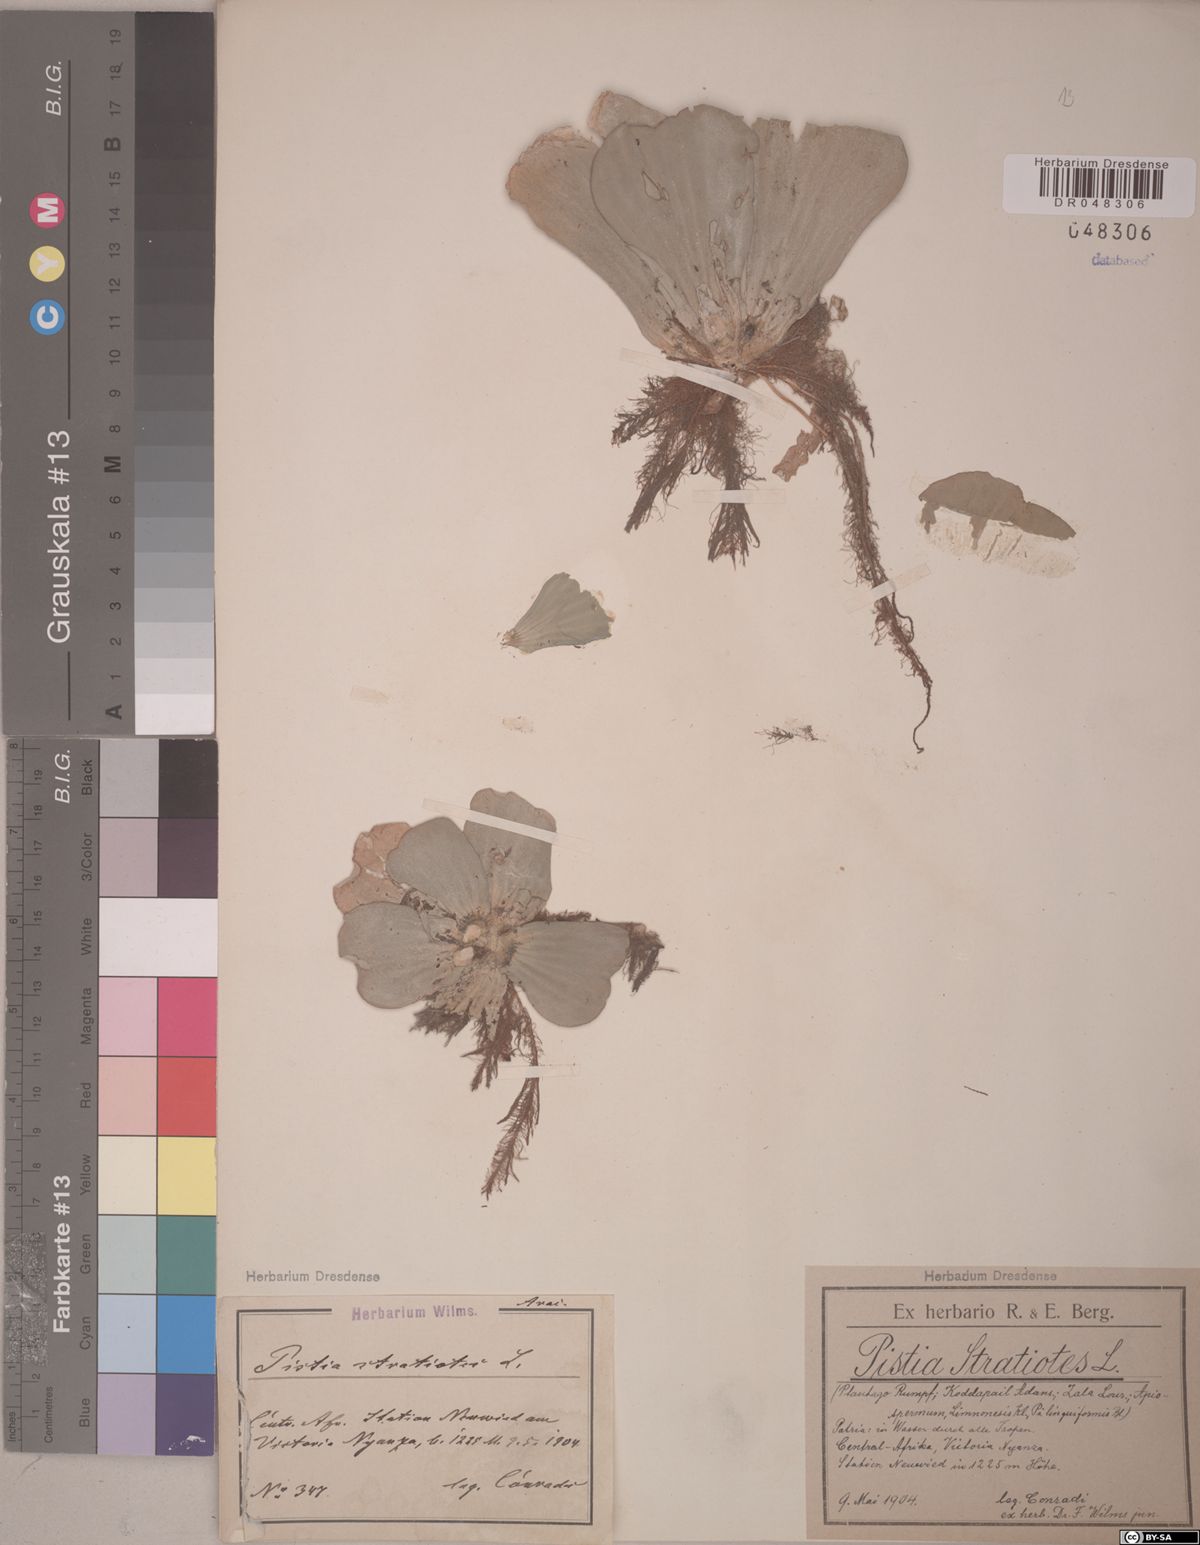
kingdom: Plantae
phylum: Tracheophyta
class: Liliopsida
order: Alismatales
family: Araceae
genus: Pistia
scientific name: Pistia stratiotes
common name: Water lettuce
